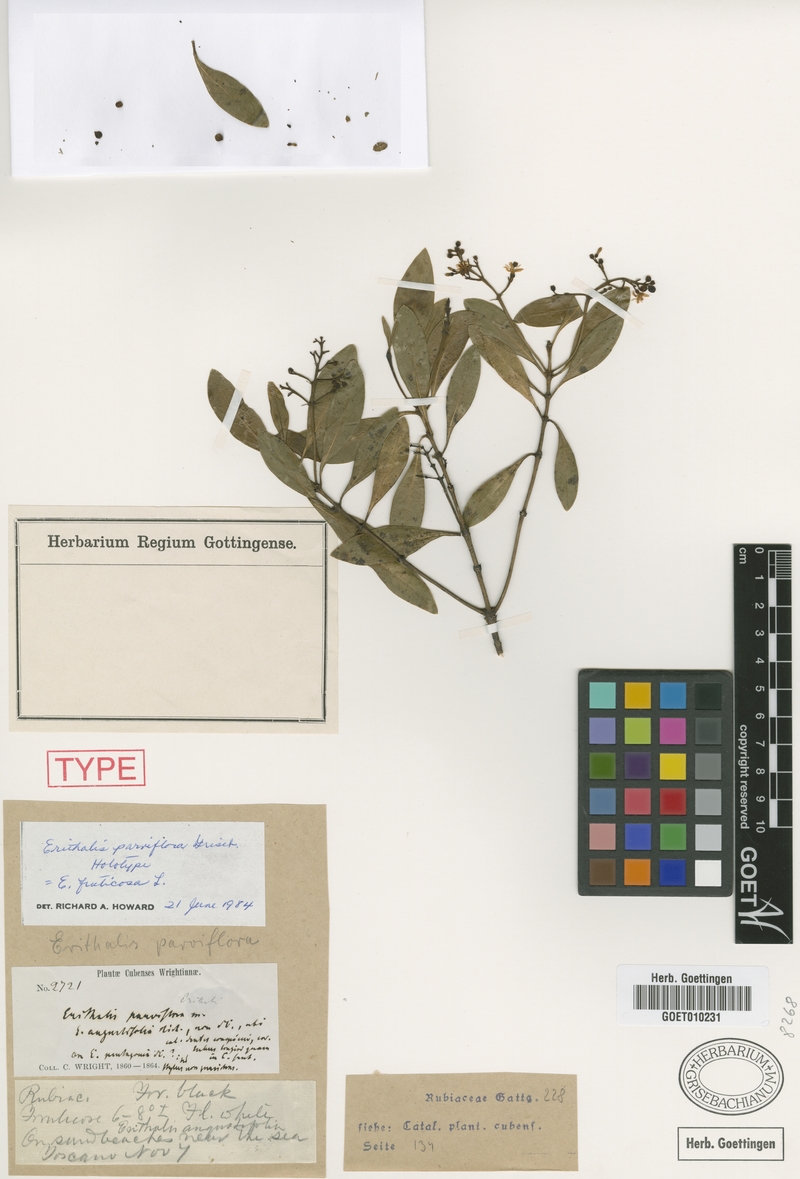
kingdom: Plantae
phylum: Tracheophyta
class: Magnoliopsida
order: Gentianales
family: Rubiaceae
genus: Erithalis
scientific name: Erithalis fruticosa
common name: Candlewood
